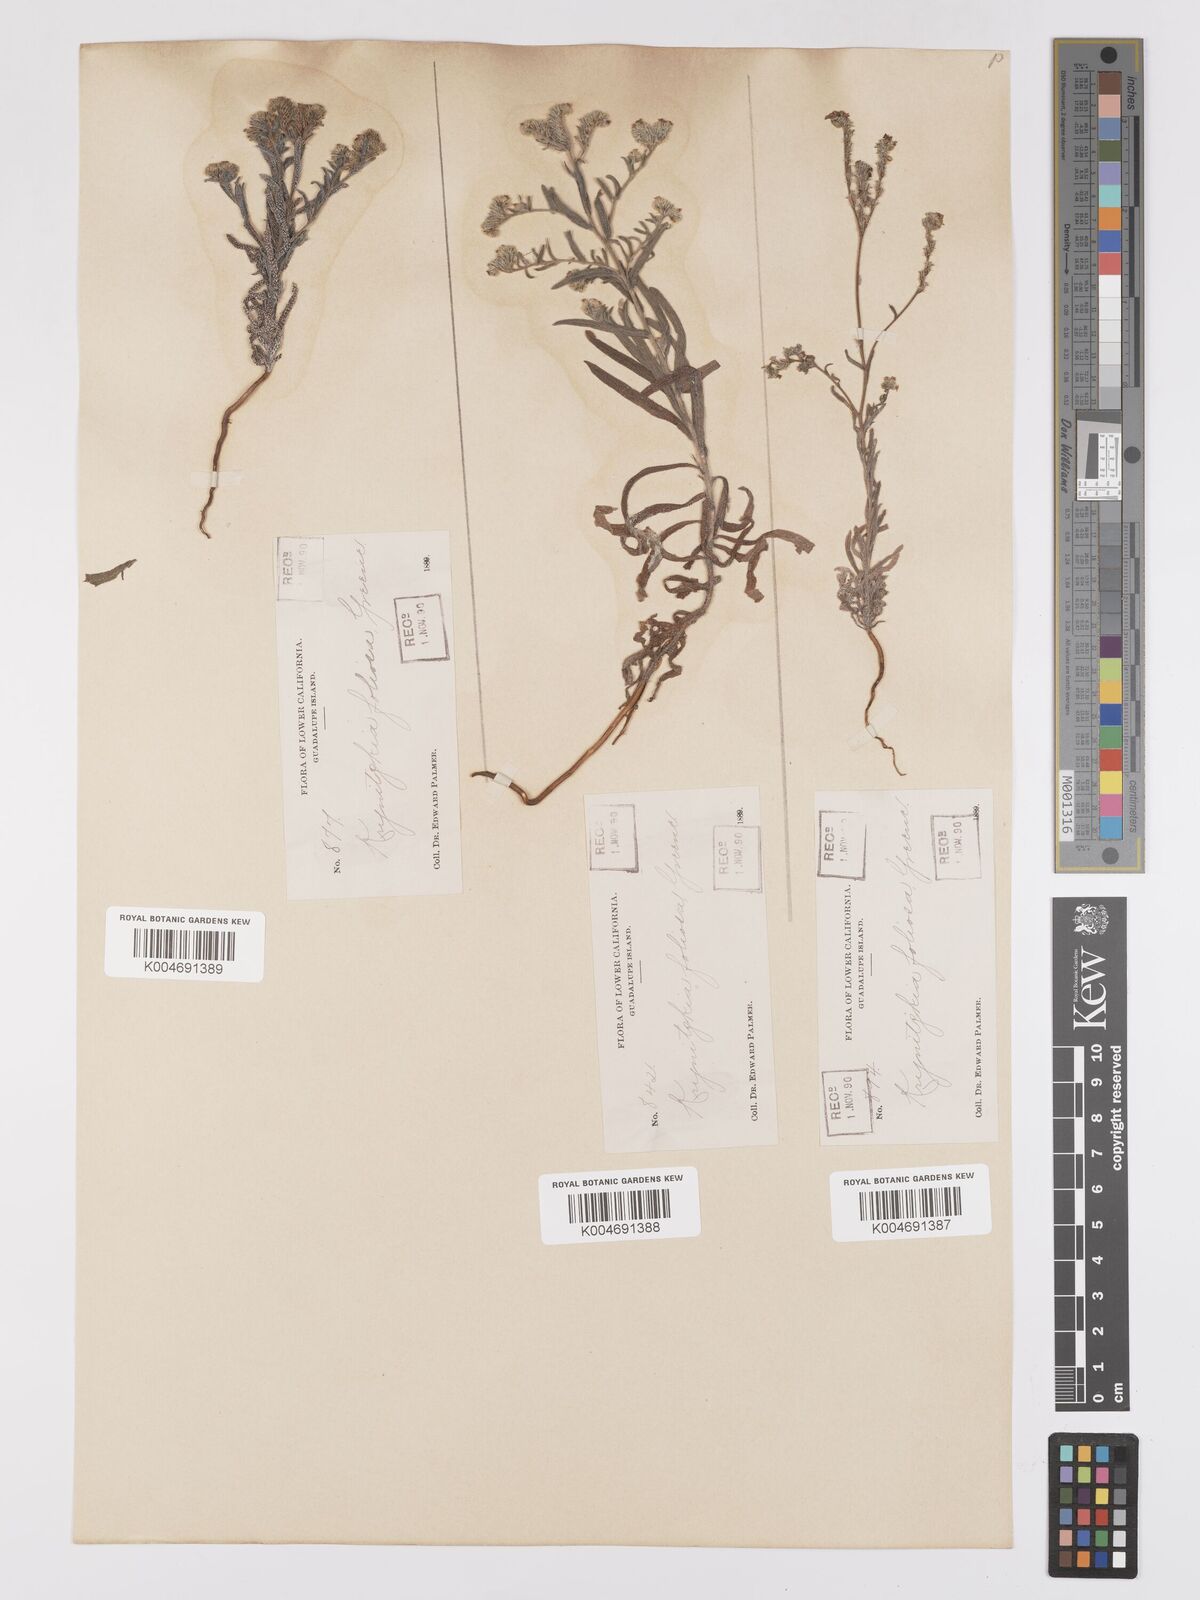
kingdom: Plantae
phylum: Tracheophyta
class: Magnoliopsida
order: Boraginales
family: Boraginaceae
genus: Cryptantha
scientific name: Cryptantha foliosa
